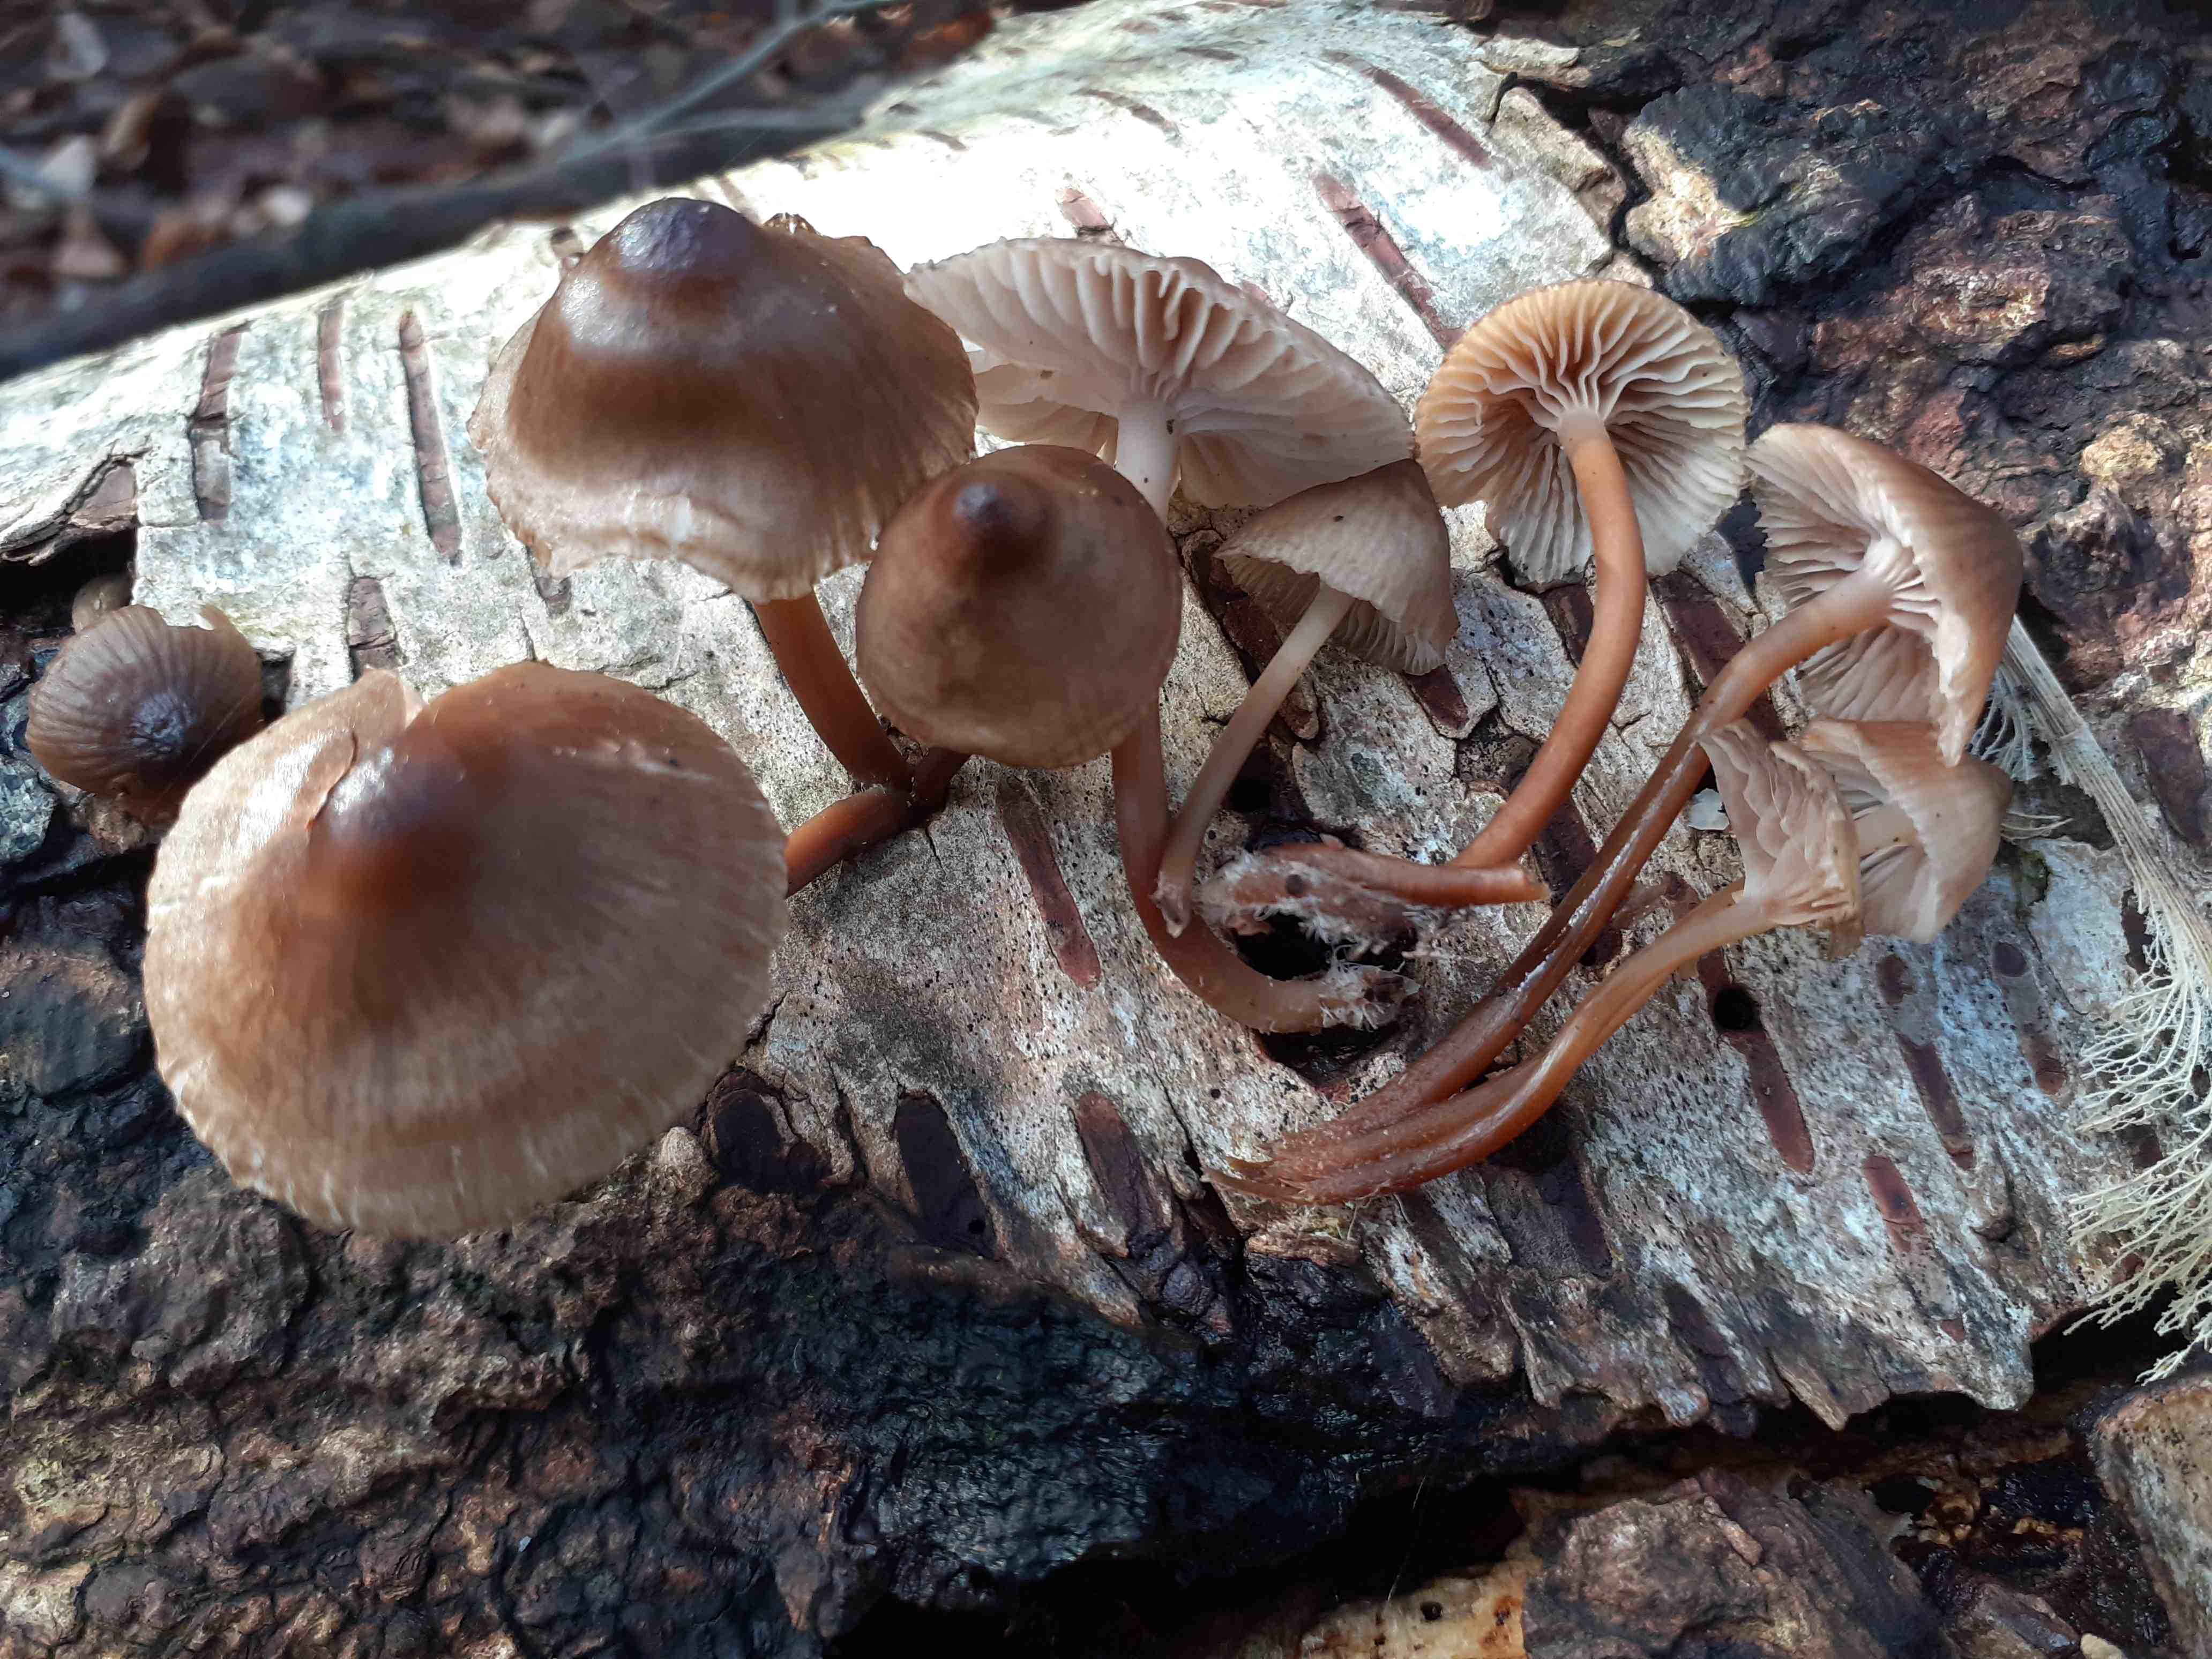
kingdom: Fungi
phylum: Basidiomycota
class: Agaricomycetes
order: Agaricales
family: Mycenaceae
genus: Mycena
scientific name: Mycena tintinnabulum
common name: vinter-huesvamp
